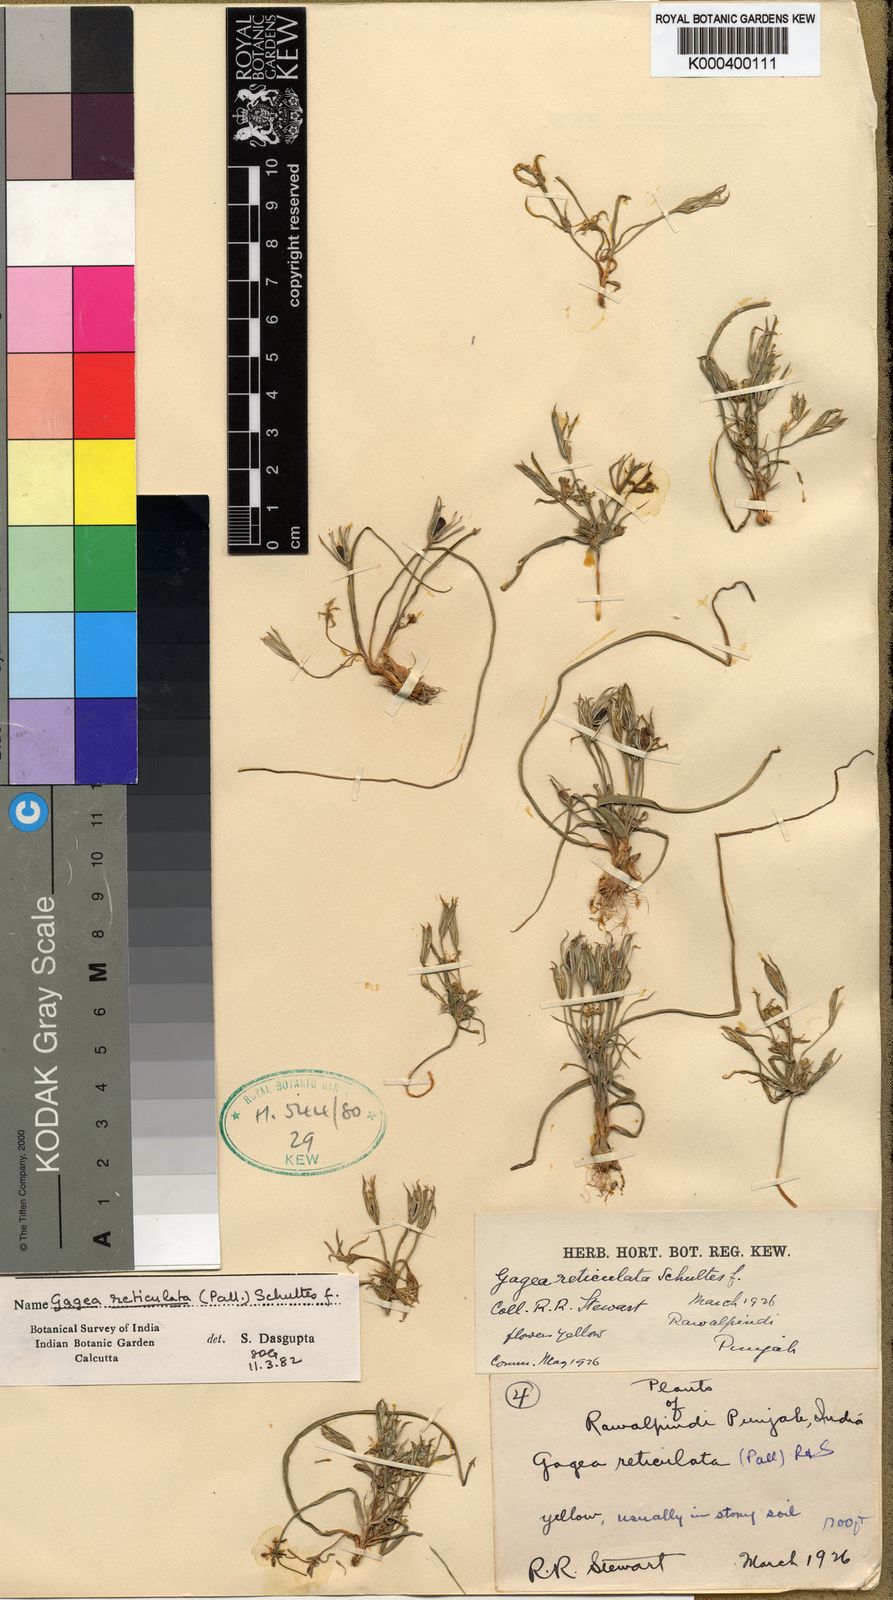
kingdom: Plantae
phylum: Tracheophyta
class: Liliopsida
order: Liliales
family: Liliaceae
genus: Gagea
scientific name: Gagea reticulata
